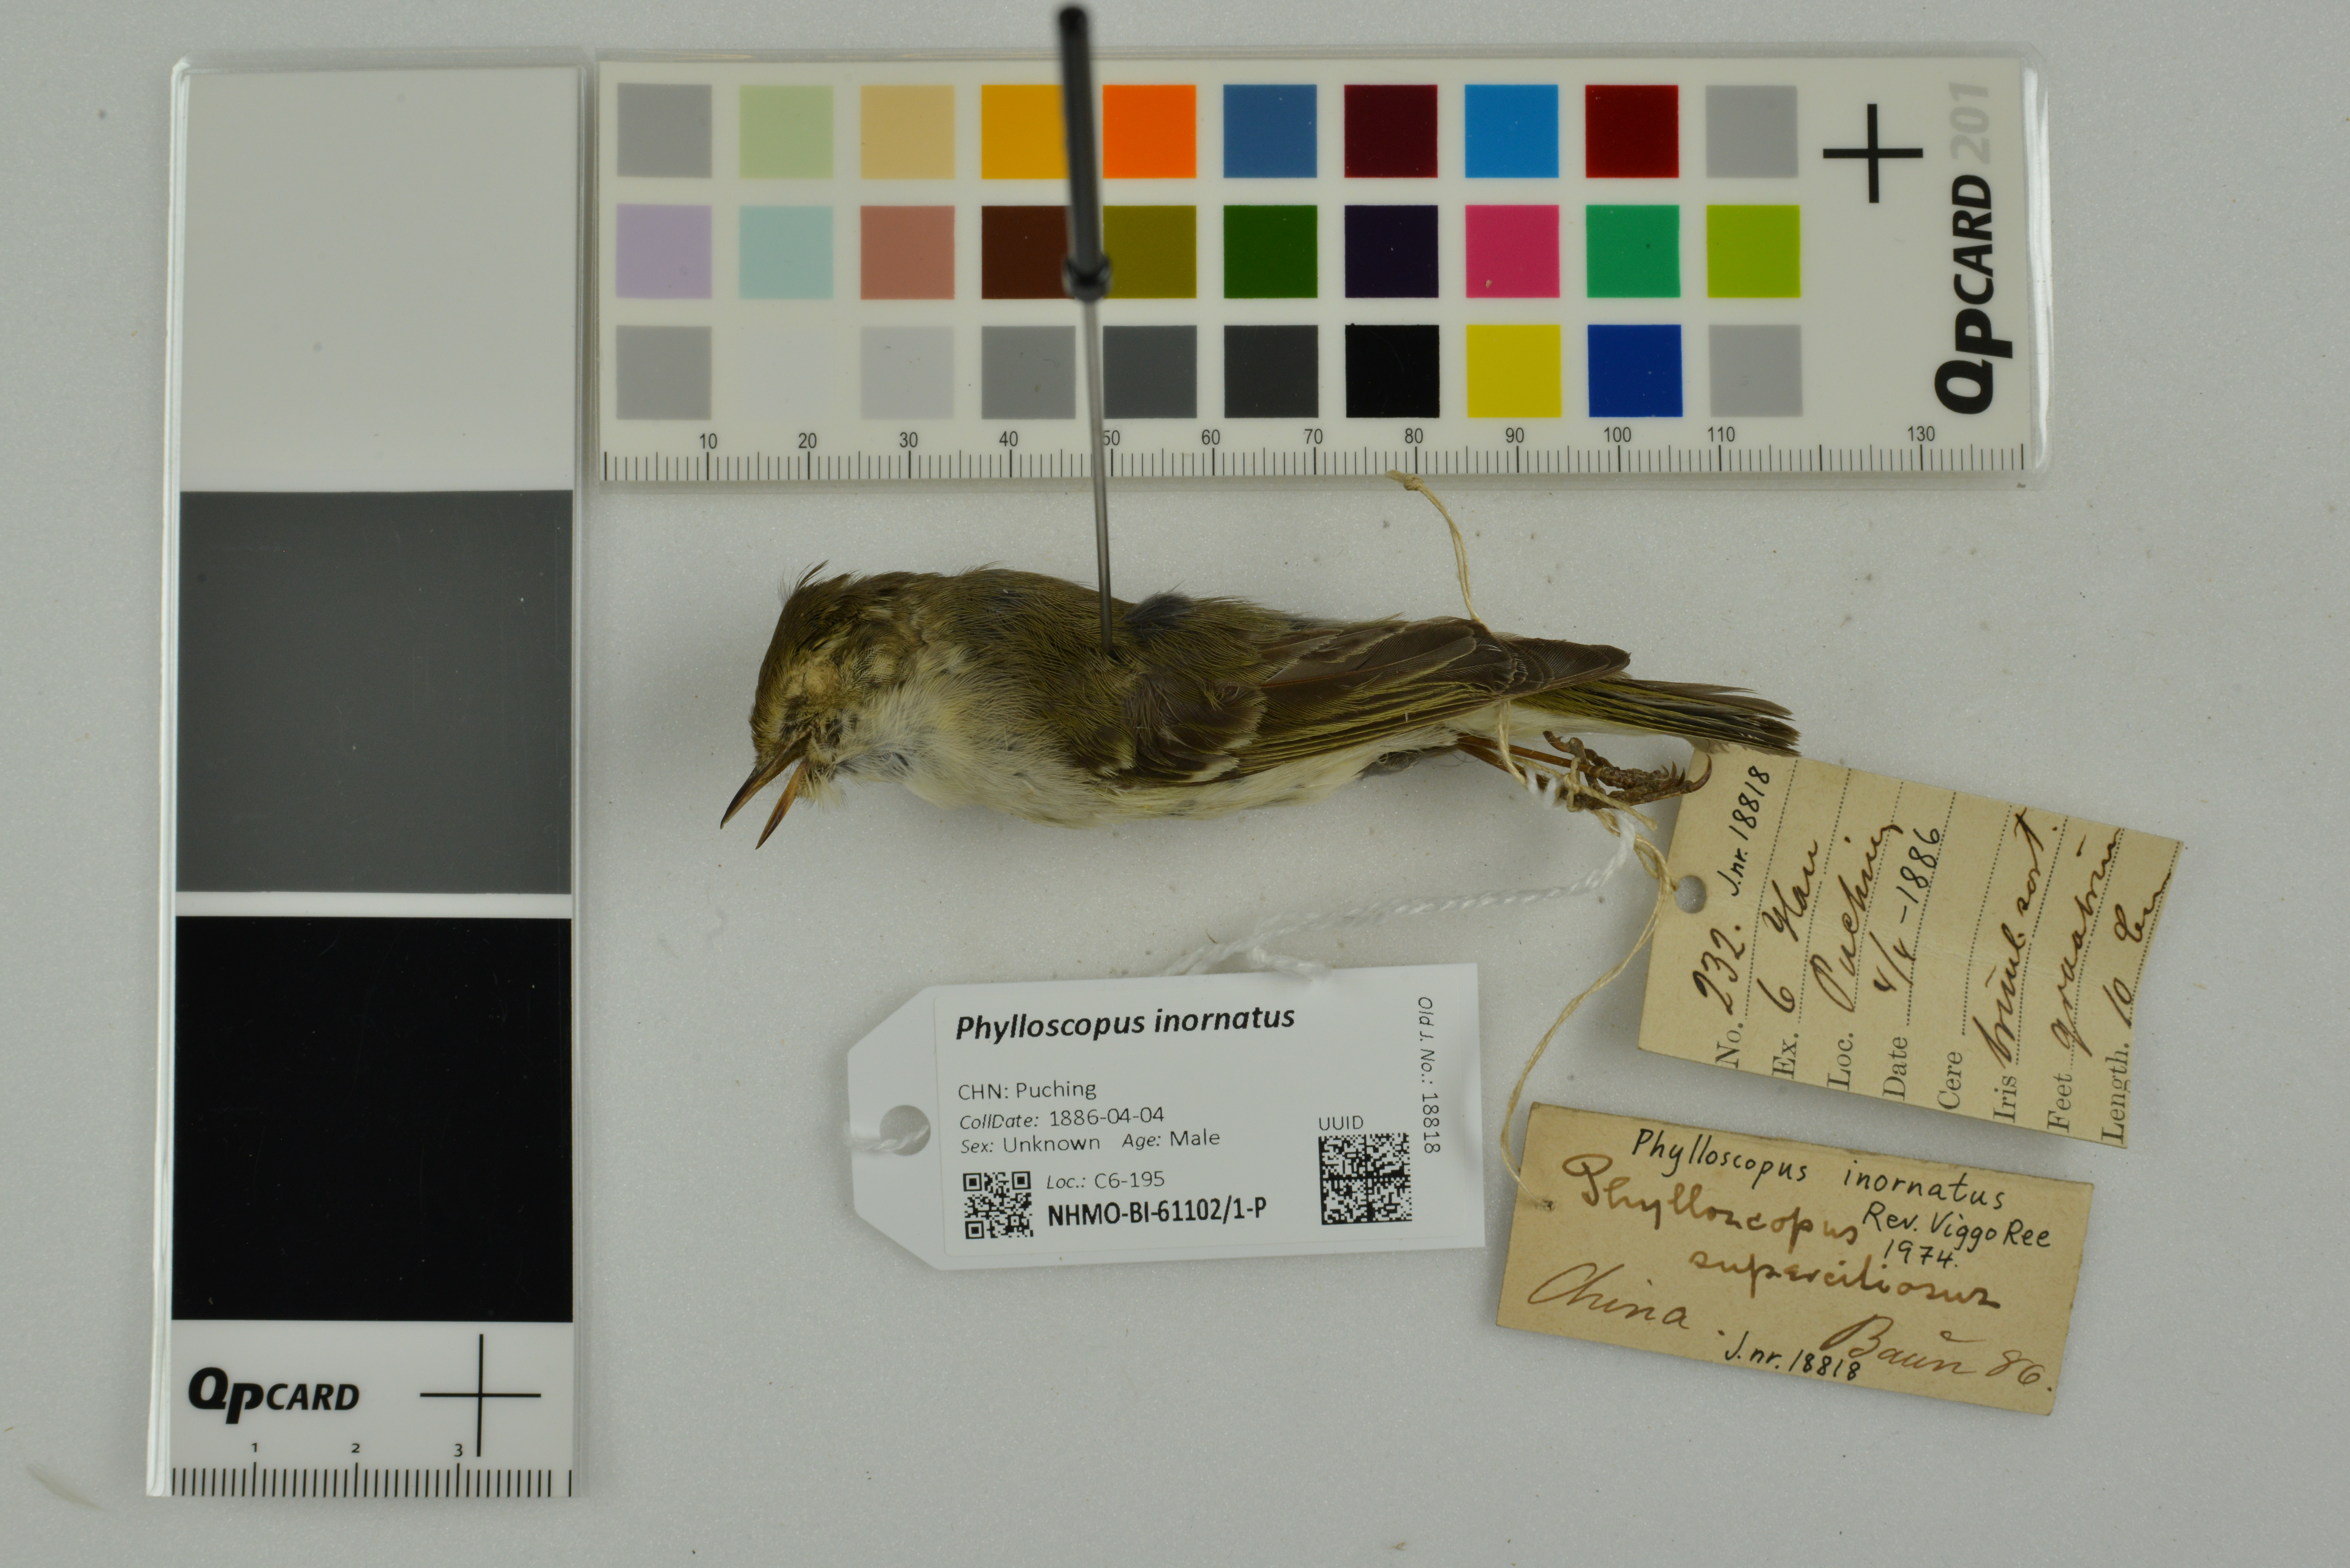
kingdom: Animalia
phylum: Chordata
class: Aves
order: Passeriformes
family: Phylloscopidae
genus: Phylloscopus
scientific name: Phylloscopus inornatus
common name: Yellow-browed warbler
